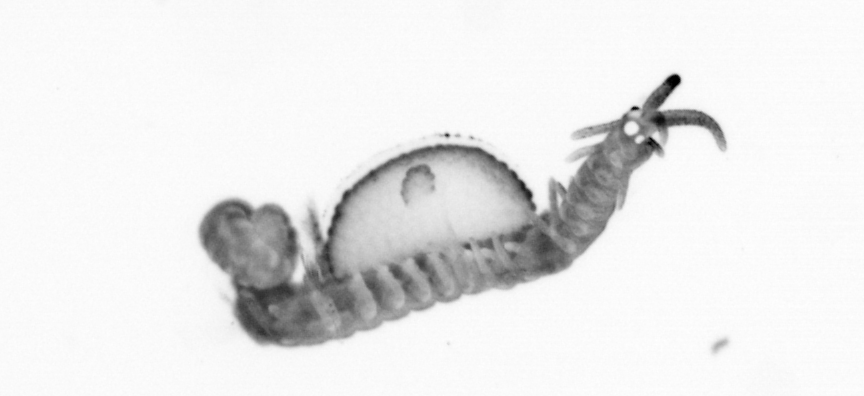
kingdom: Animalia
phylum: Annelida
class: Polychaeta
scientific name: Polychaeta
